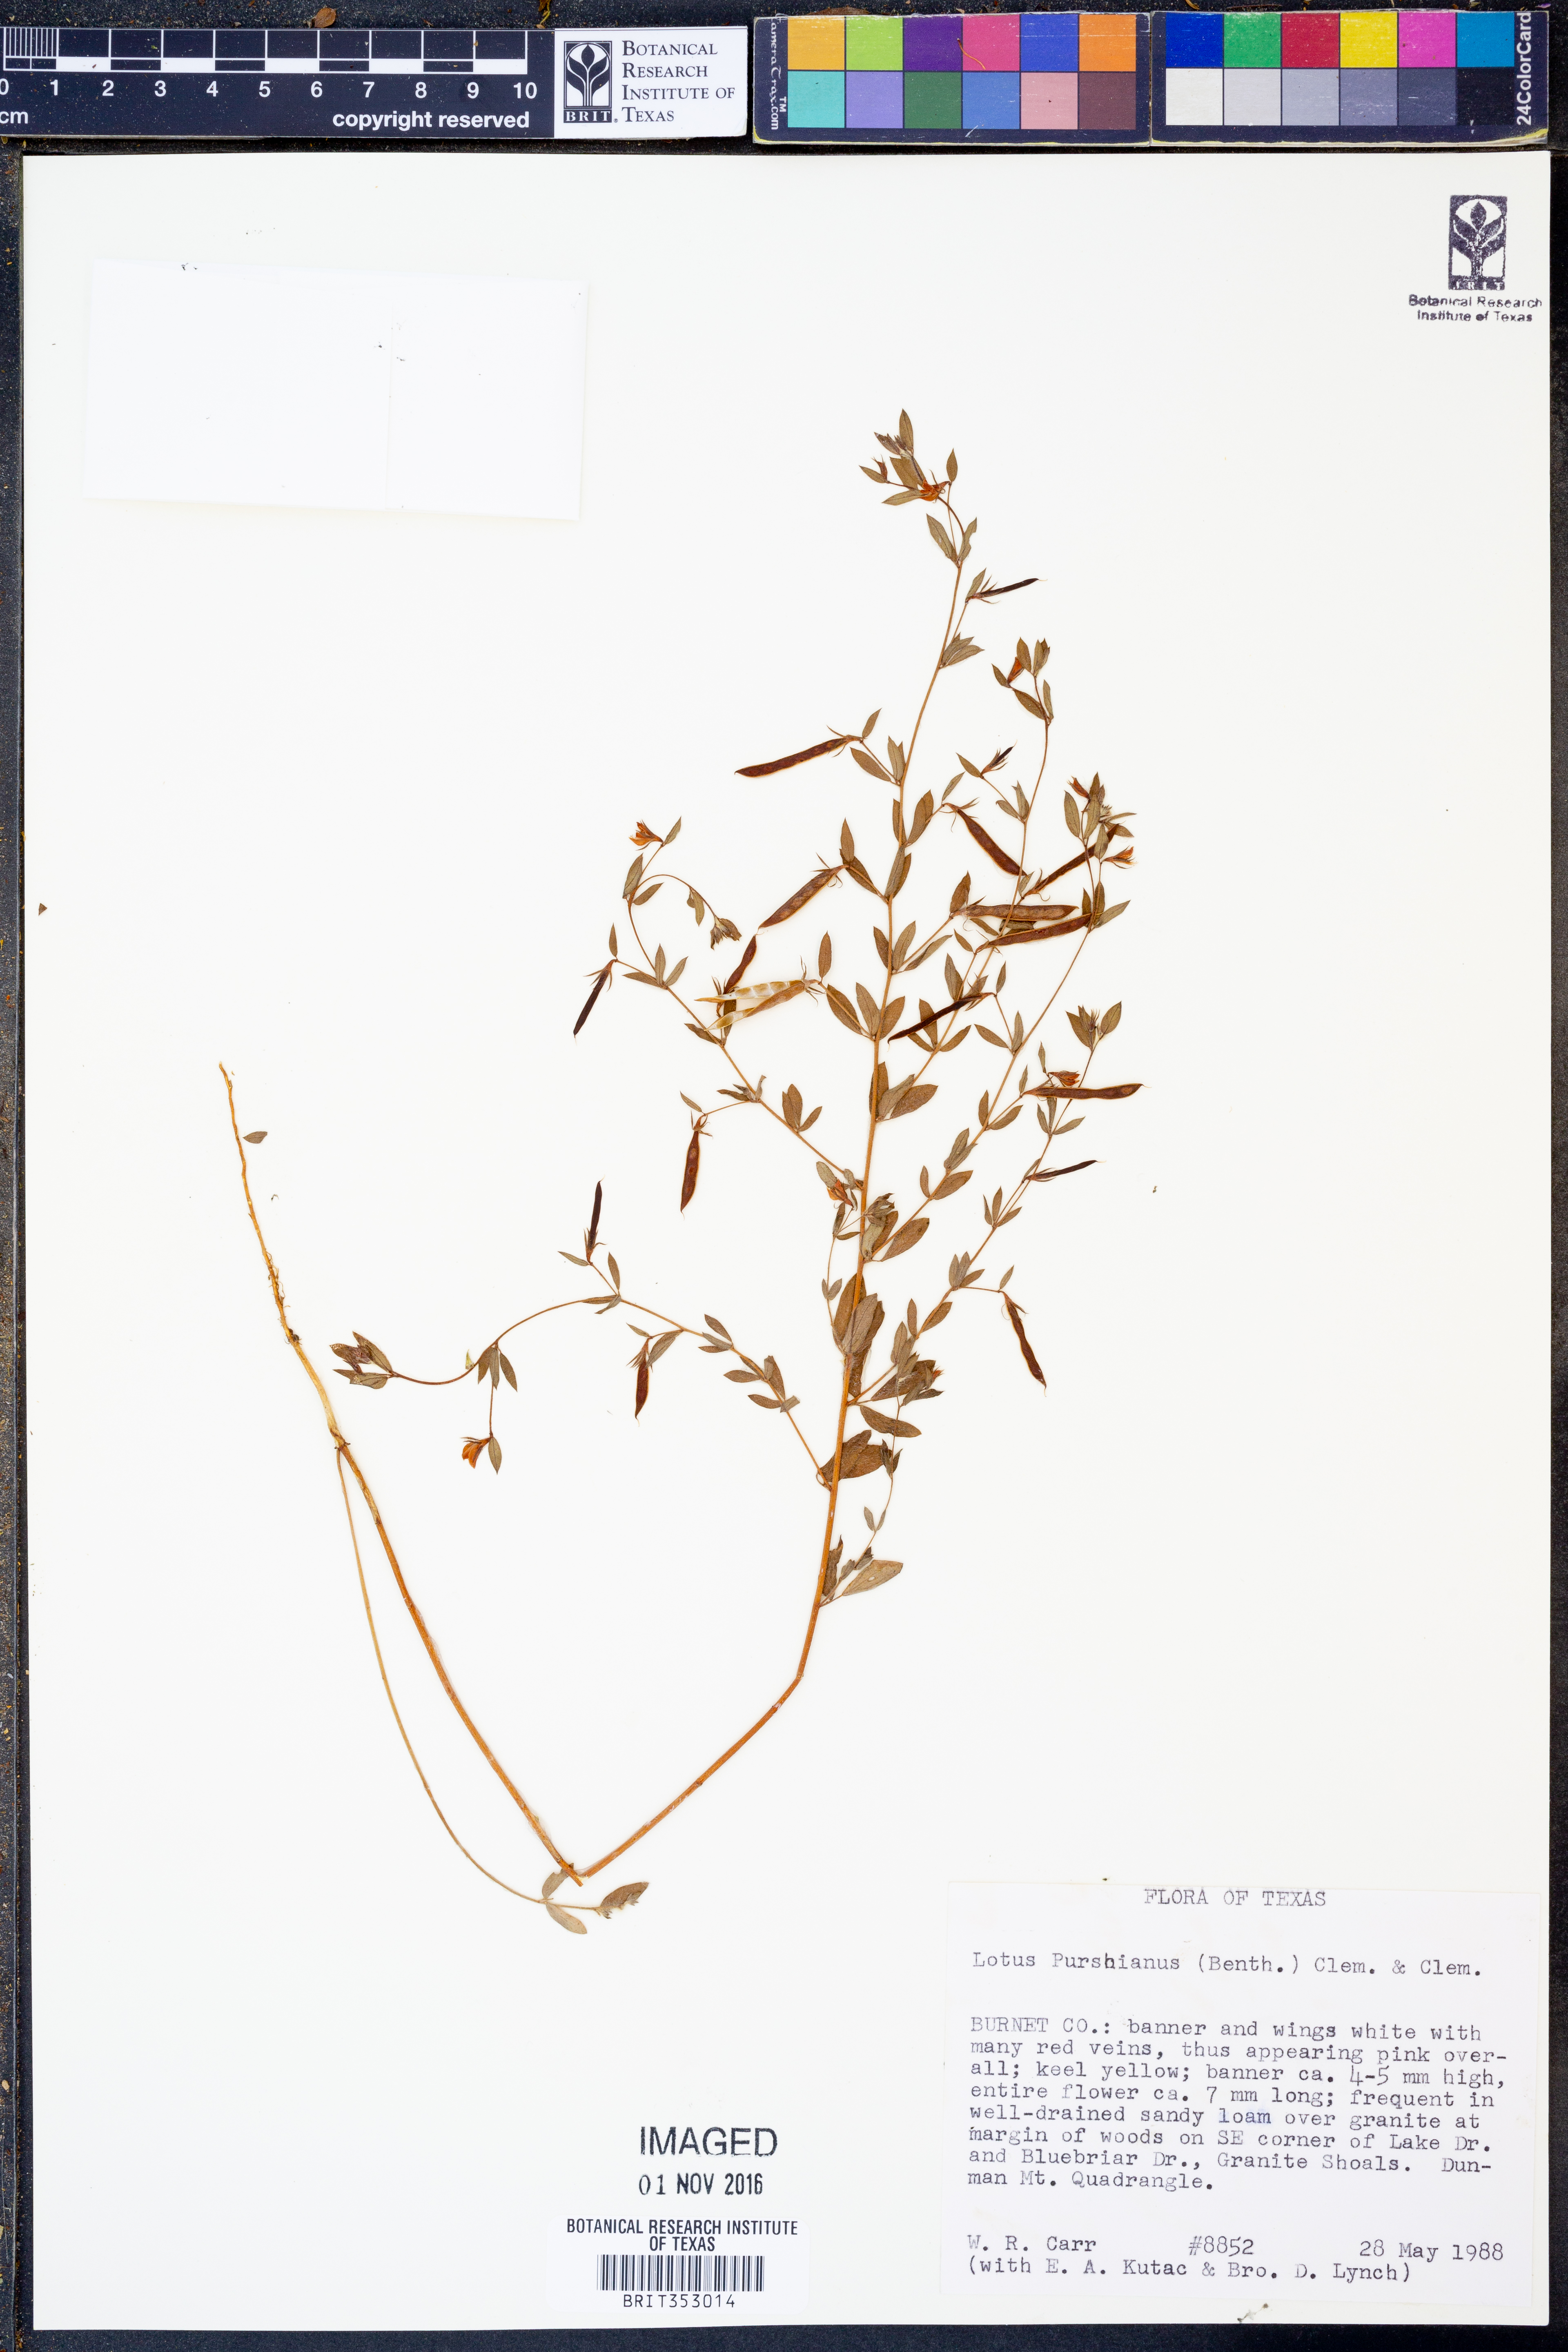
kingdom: Plantae
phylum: Tracheophyta
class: Magnoliopsida
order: Fabales
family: Fabaceae
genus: Acmispon
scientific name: Acmispon americanus
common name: American bird's-foot trefoil
